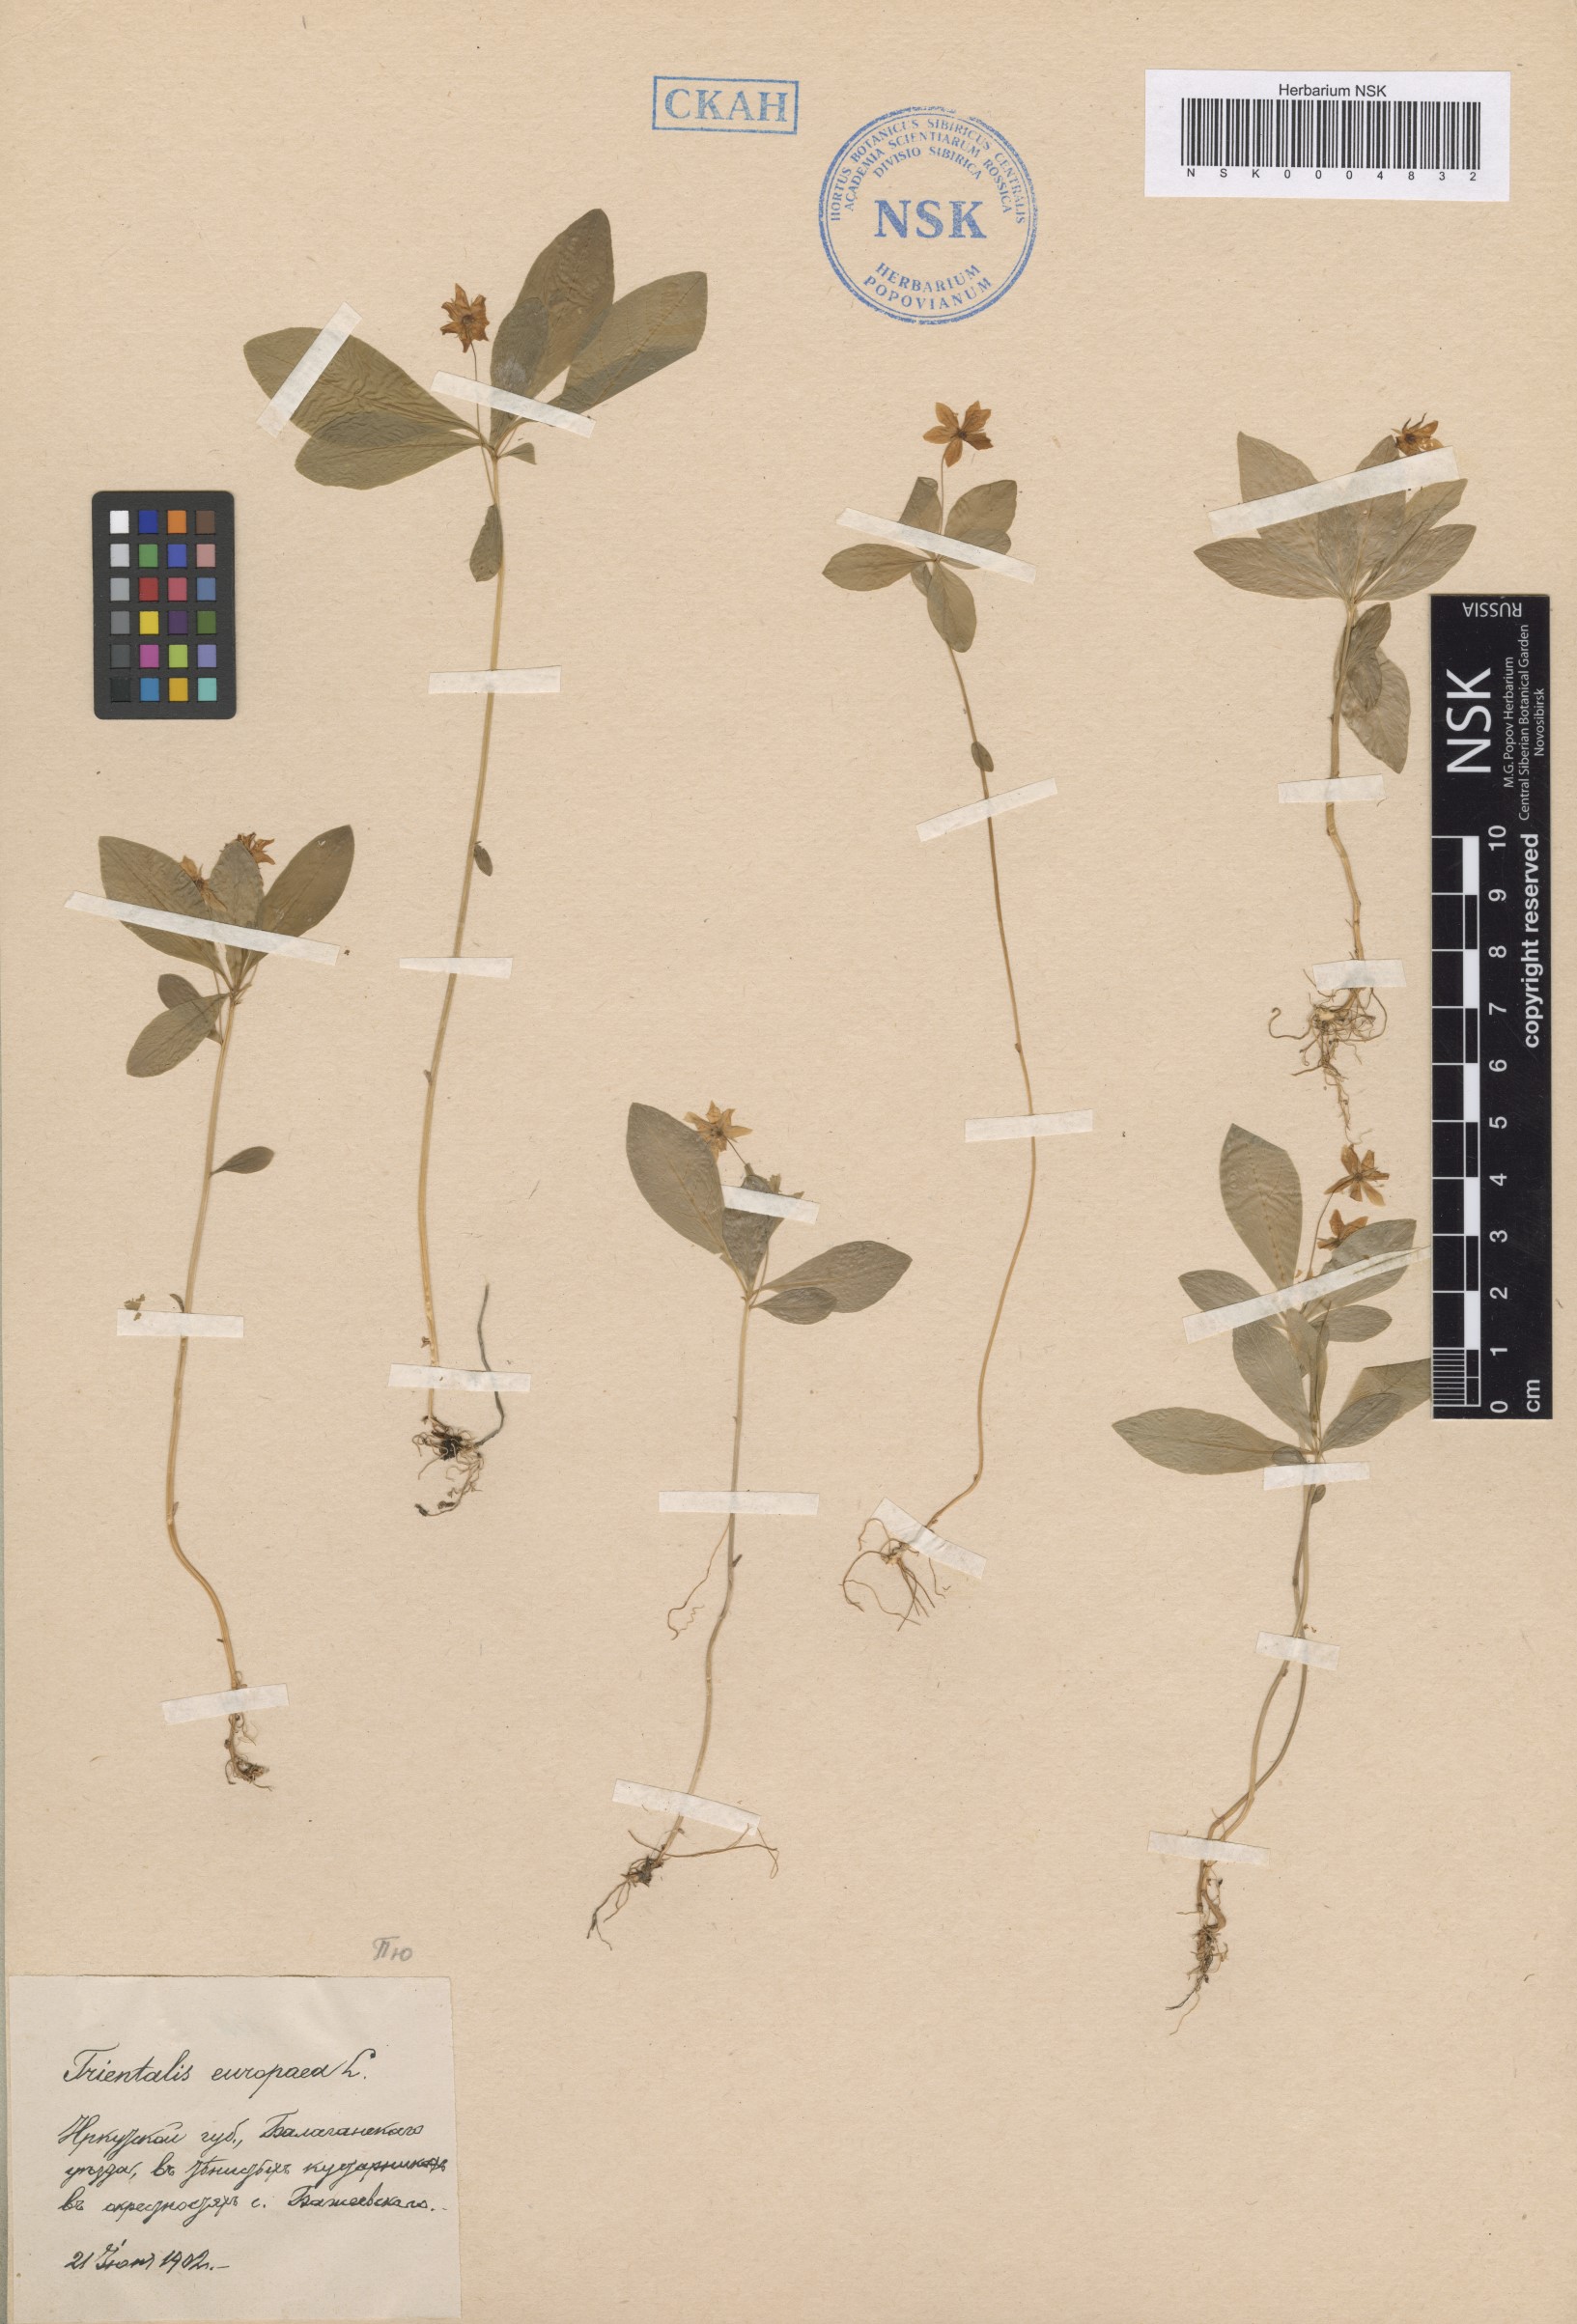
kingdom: Plantae
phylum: Tracheophyta
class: Magnoliopsida
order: Ericales
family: Primulaceae
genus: Lysimachia
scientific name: Lysimachia europaea
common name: Arctic starflower
